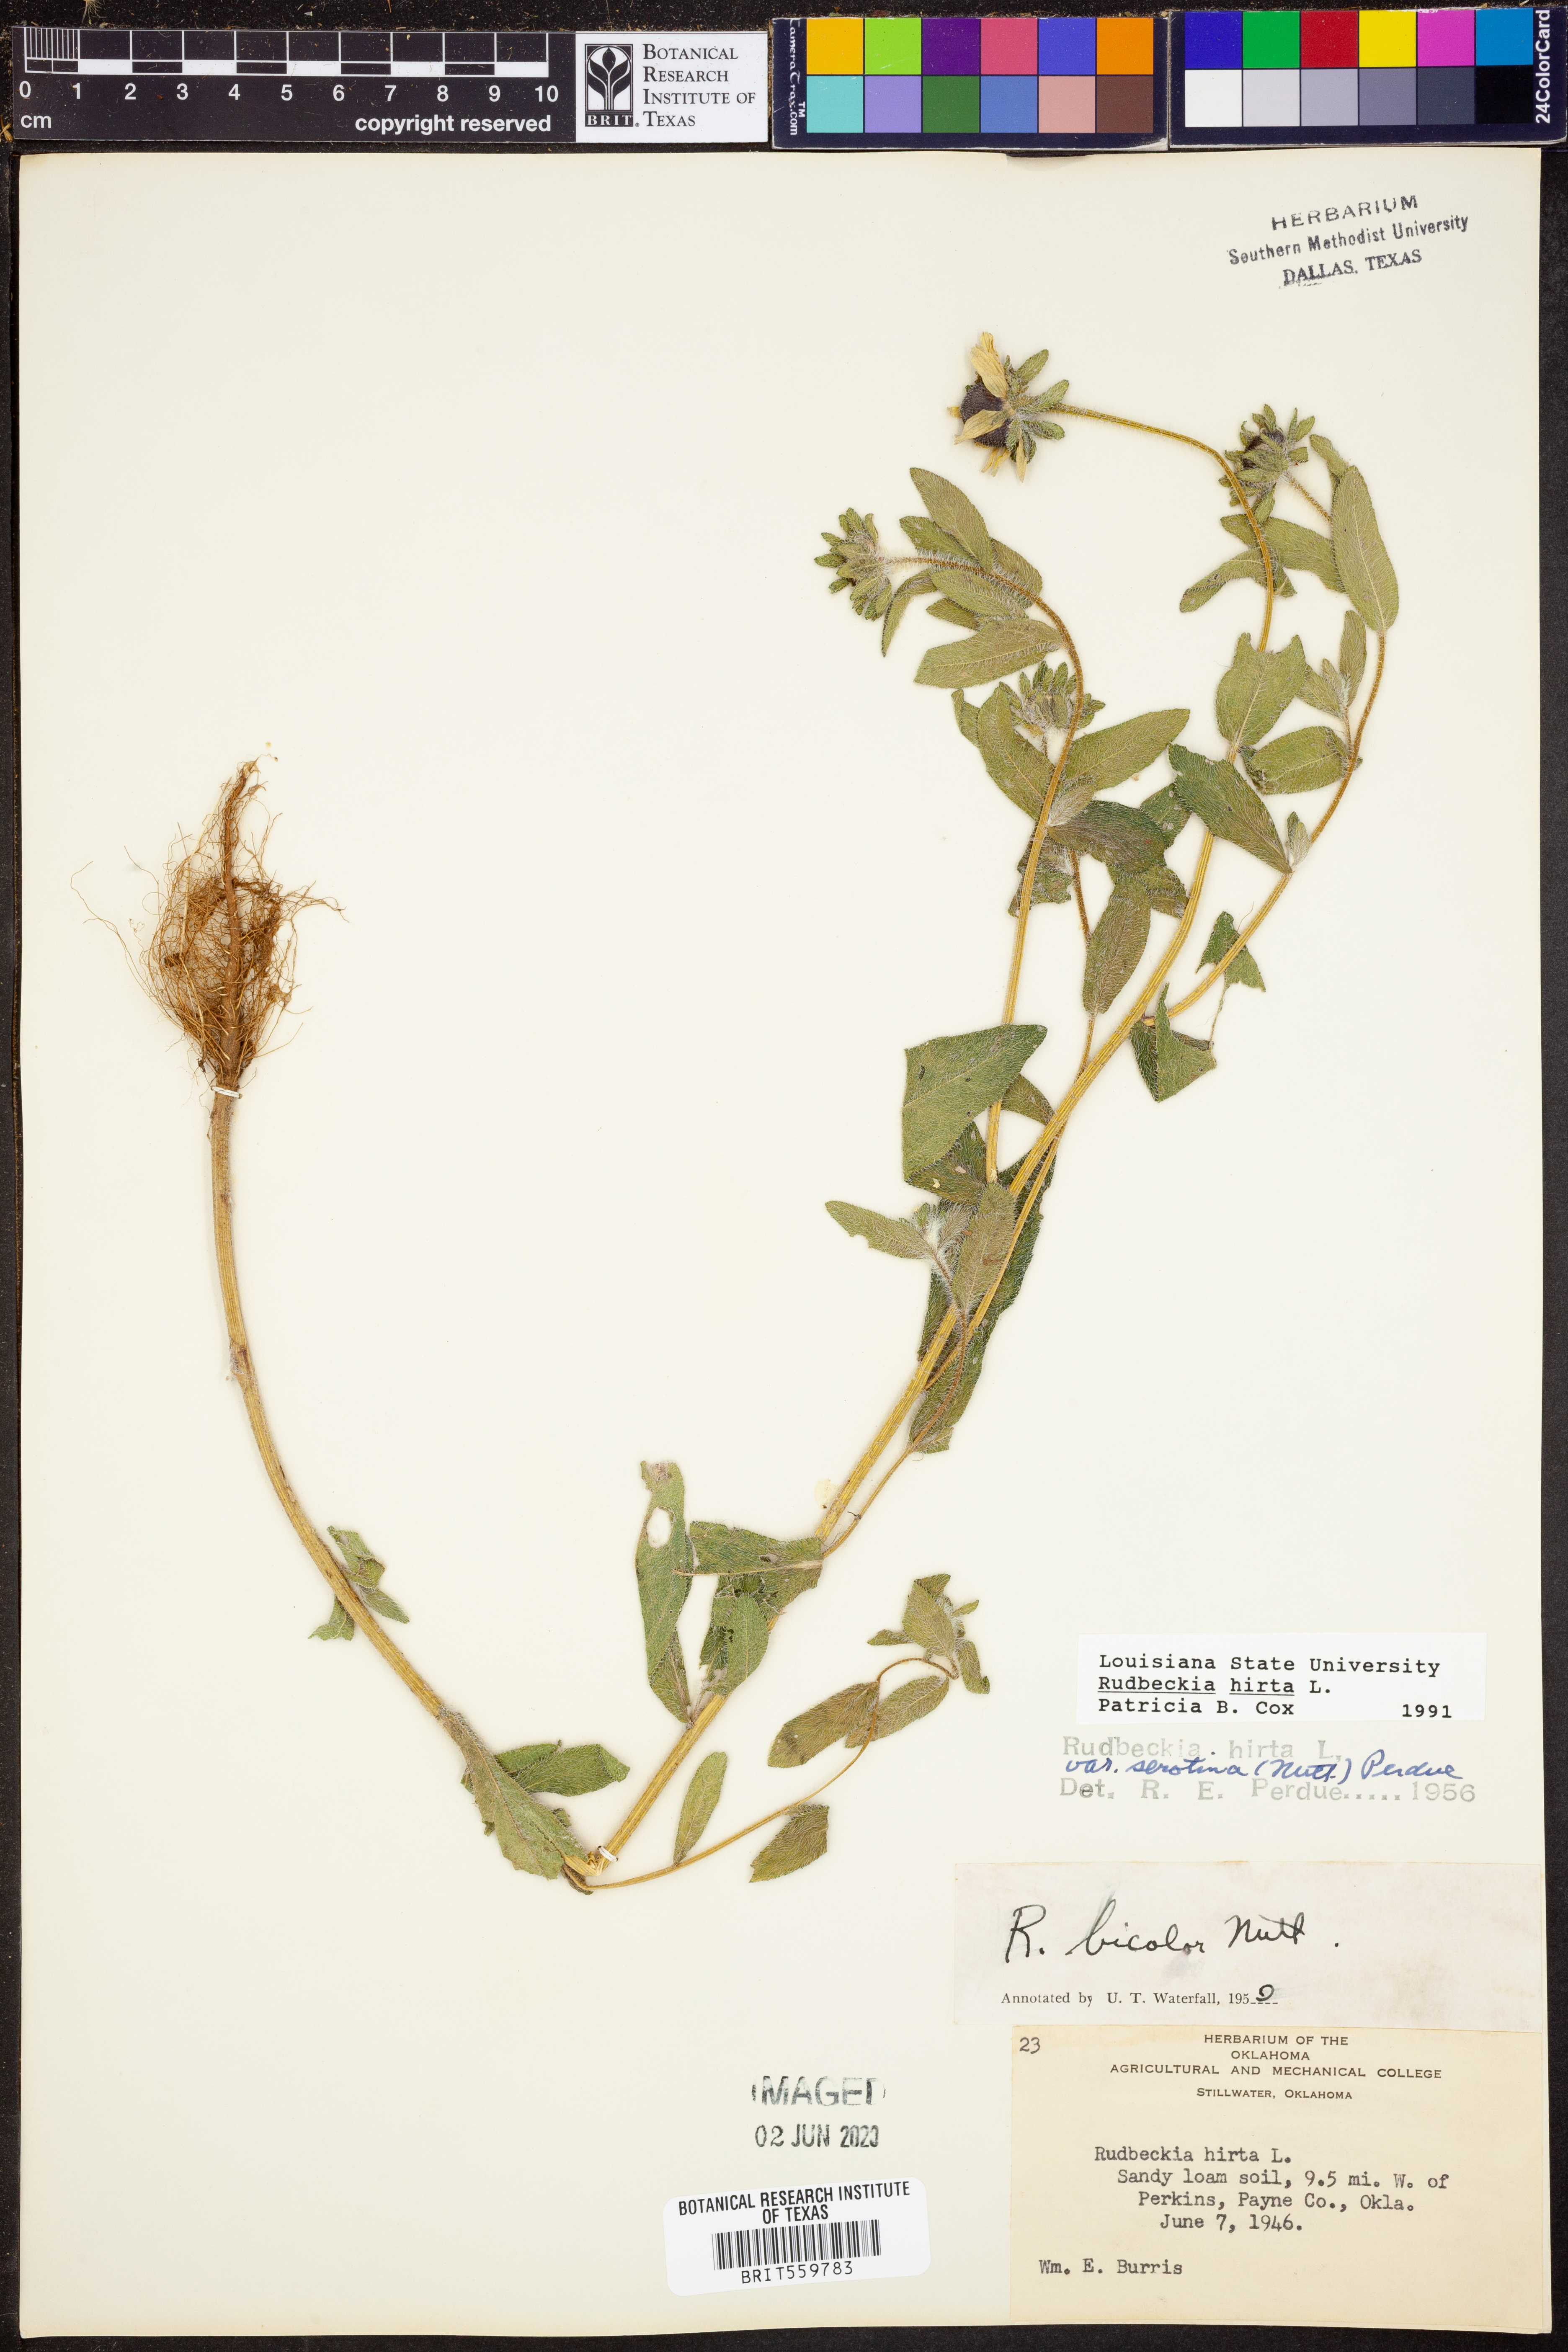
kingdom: Plantae
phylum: Tracheophyta
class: Magnoliopsida
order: Asterales
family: Asteraceae
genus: Rudbeckia
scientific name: Rudbeckia hirta
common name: Black-eyed-susan
